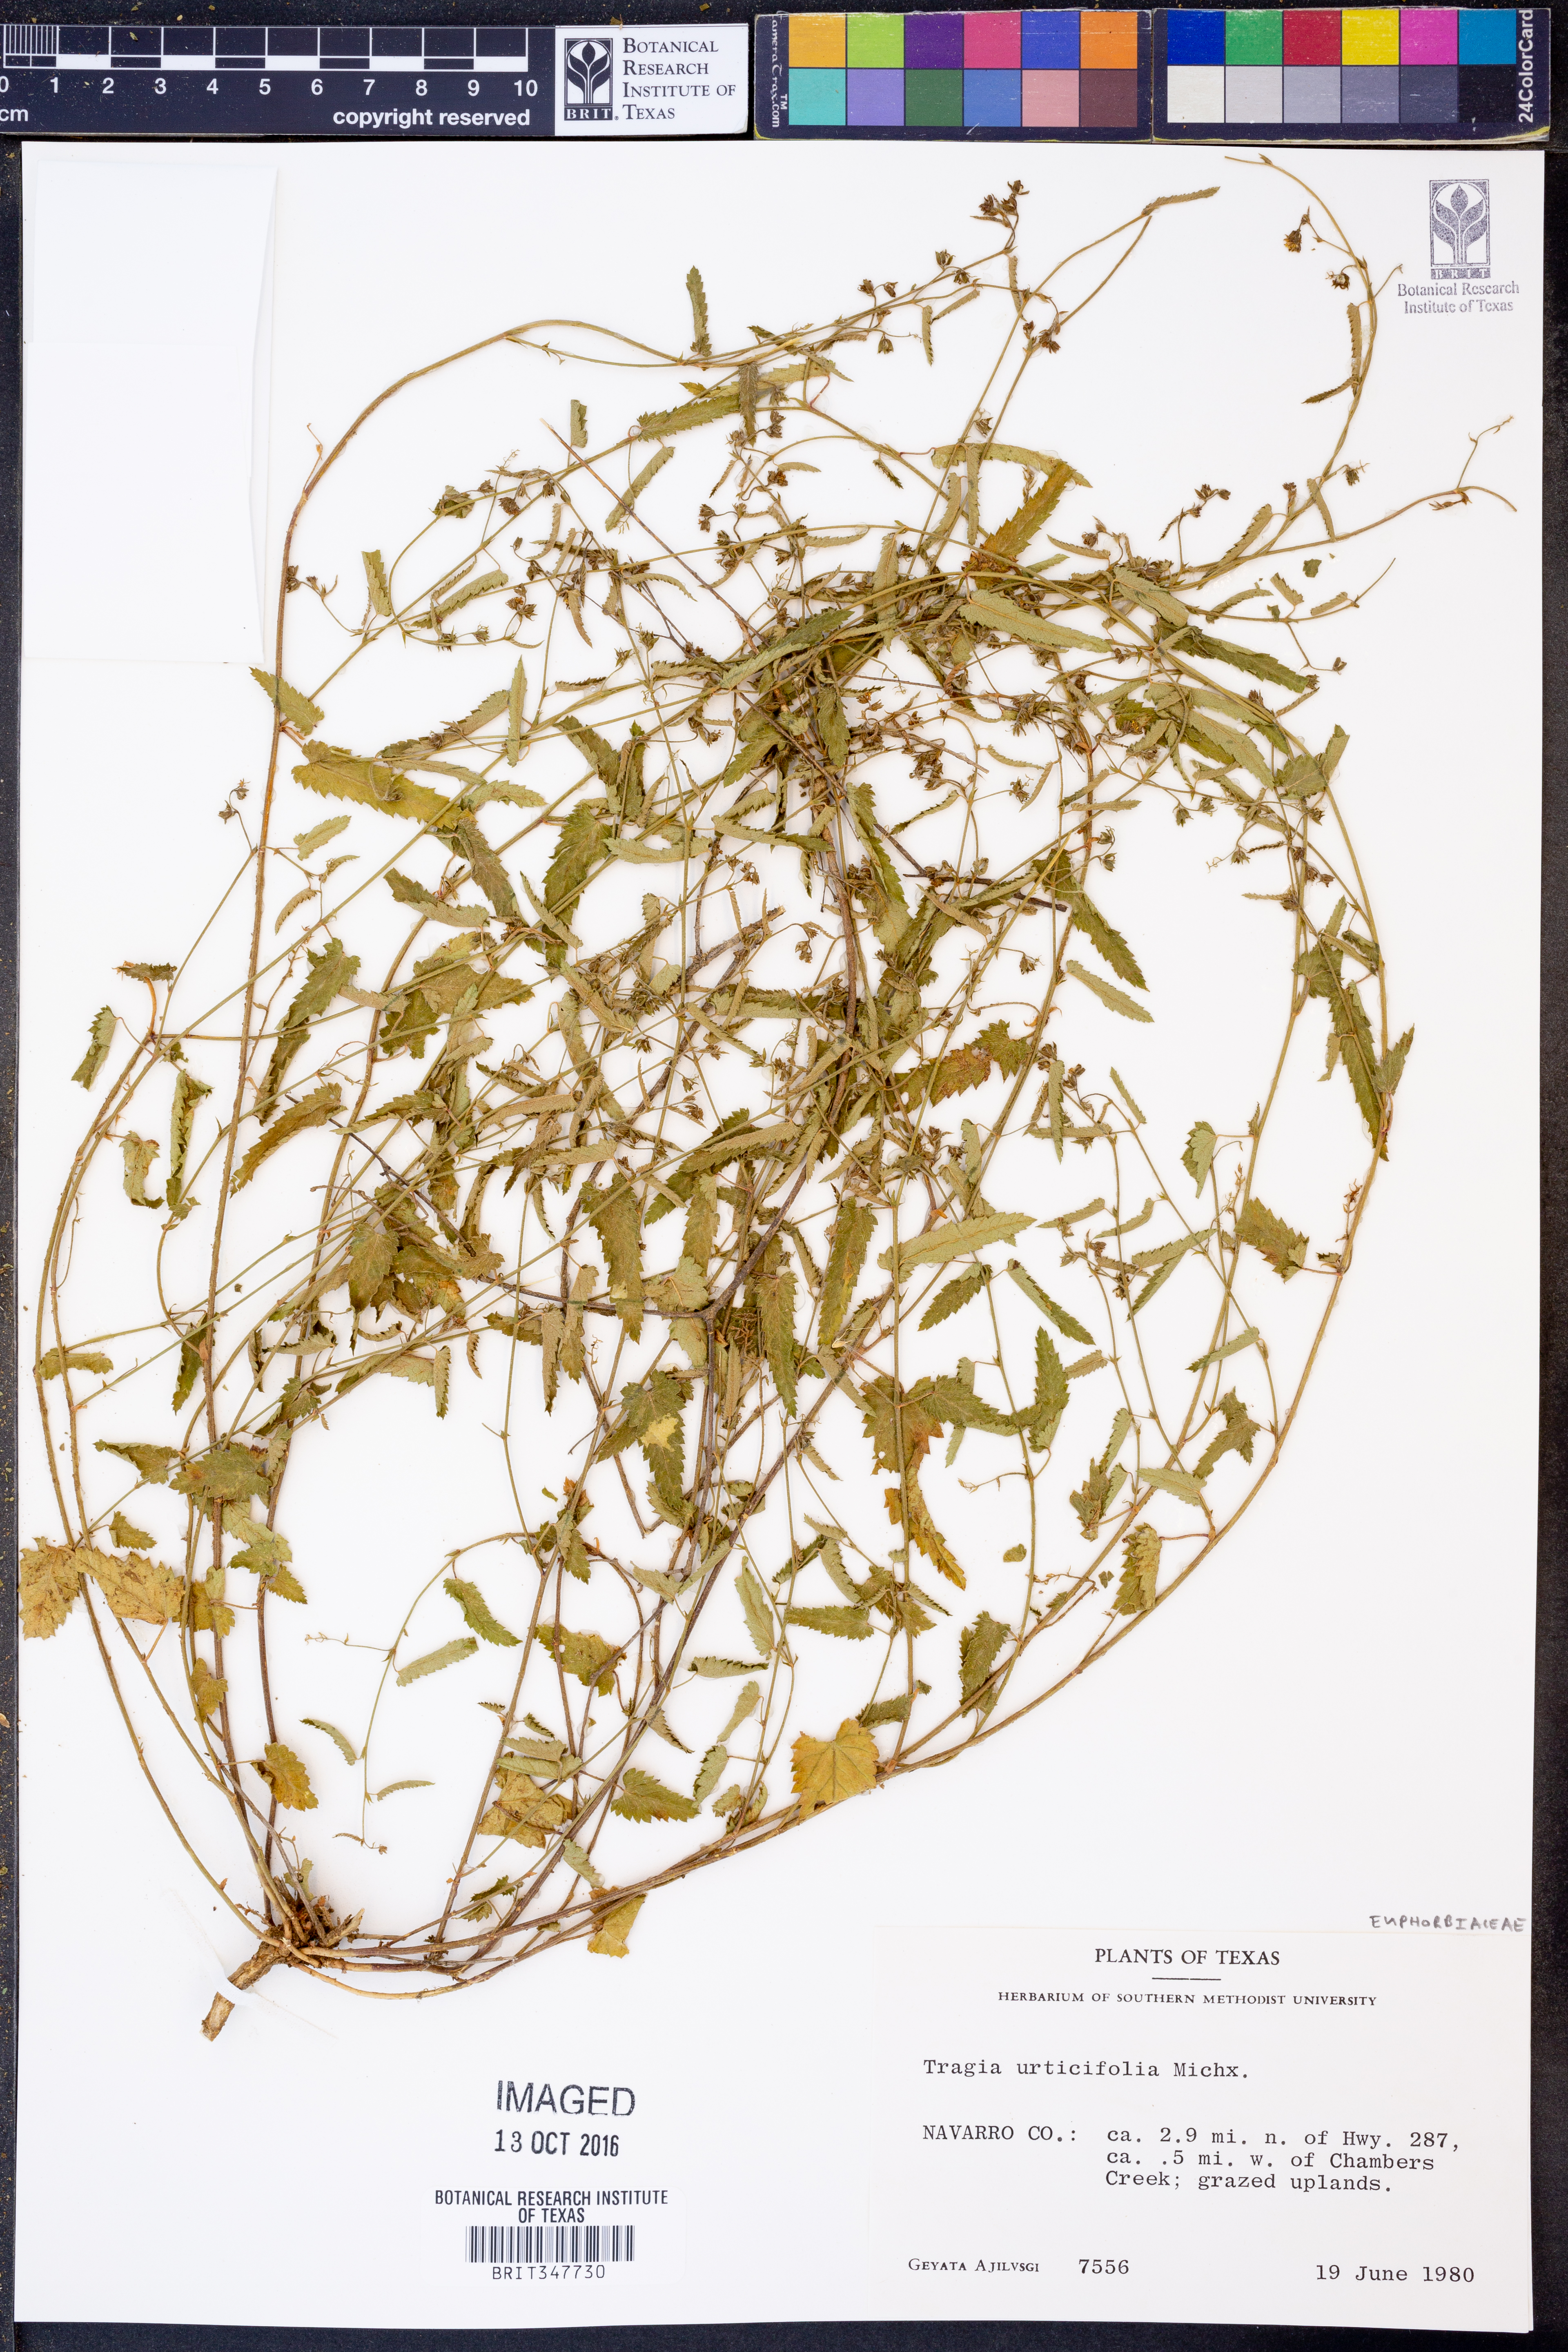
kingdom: Plantae
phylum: Tracheophyta
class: Magnoliopsida
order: Malpighiales
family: Euphorbiaceae
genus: Tragia
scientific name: Tragia urticifolia
